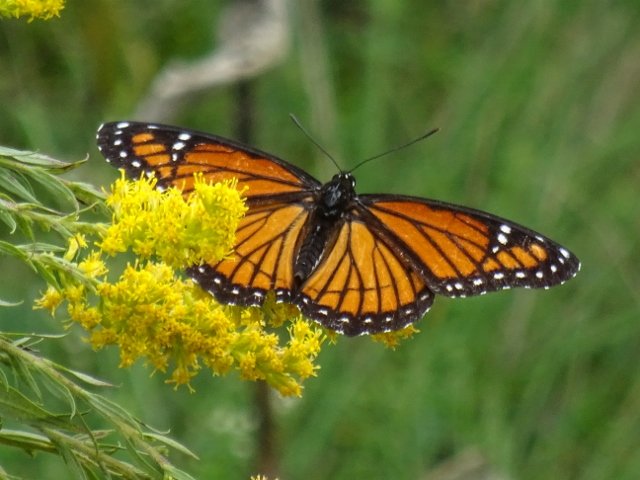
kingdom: Animalia
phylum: Arthropoda
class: Insecta
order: Lepidoptera
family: Nymphalidae
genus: Limenitis
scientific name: Limenitis archippus
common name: Viceroy
